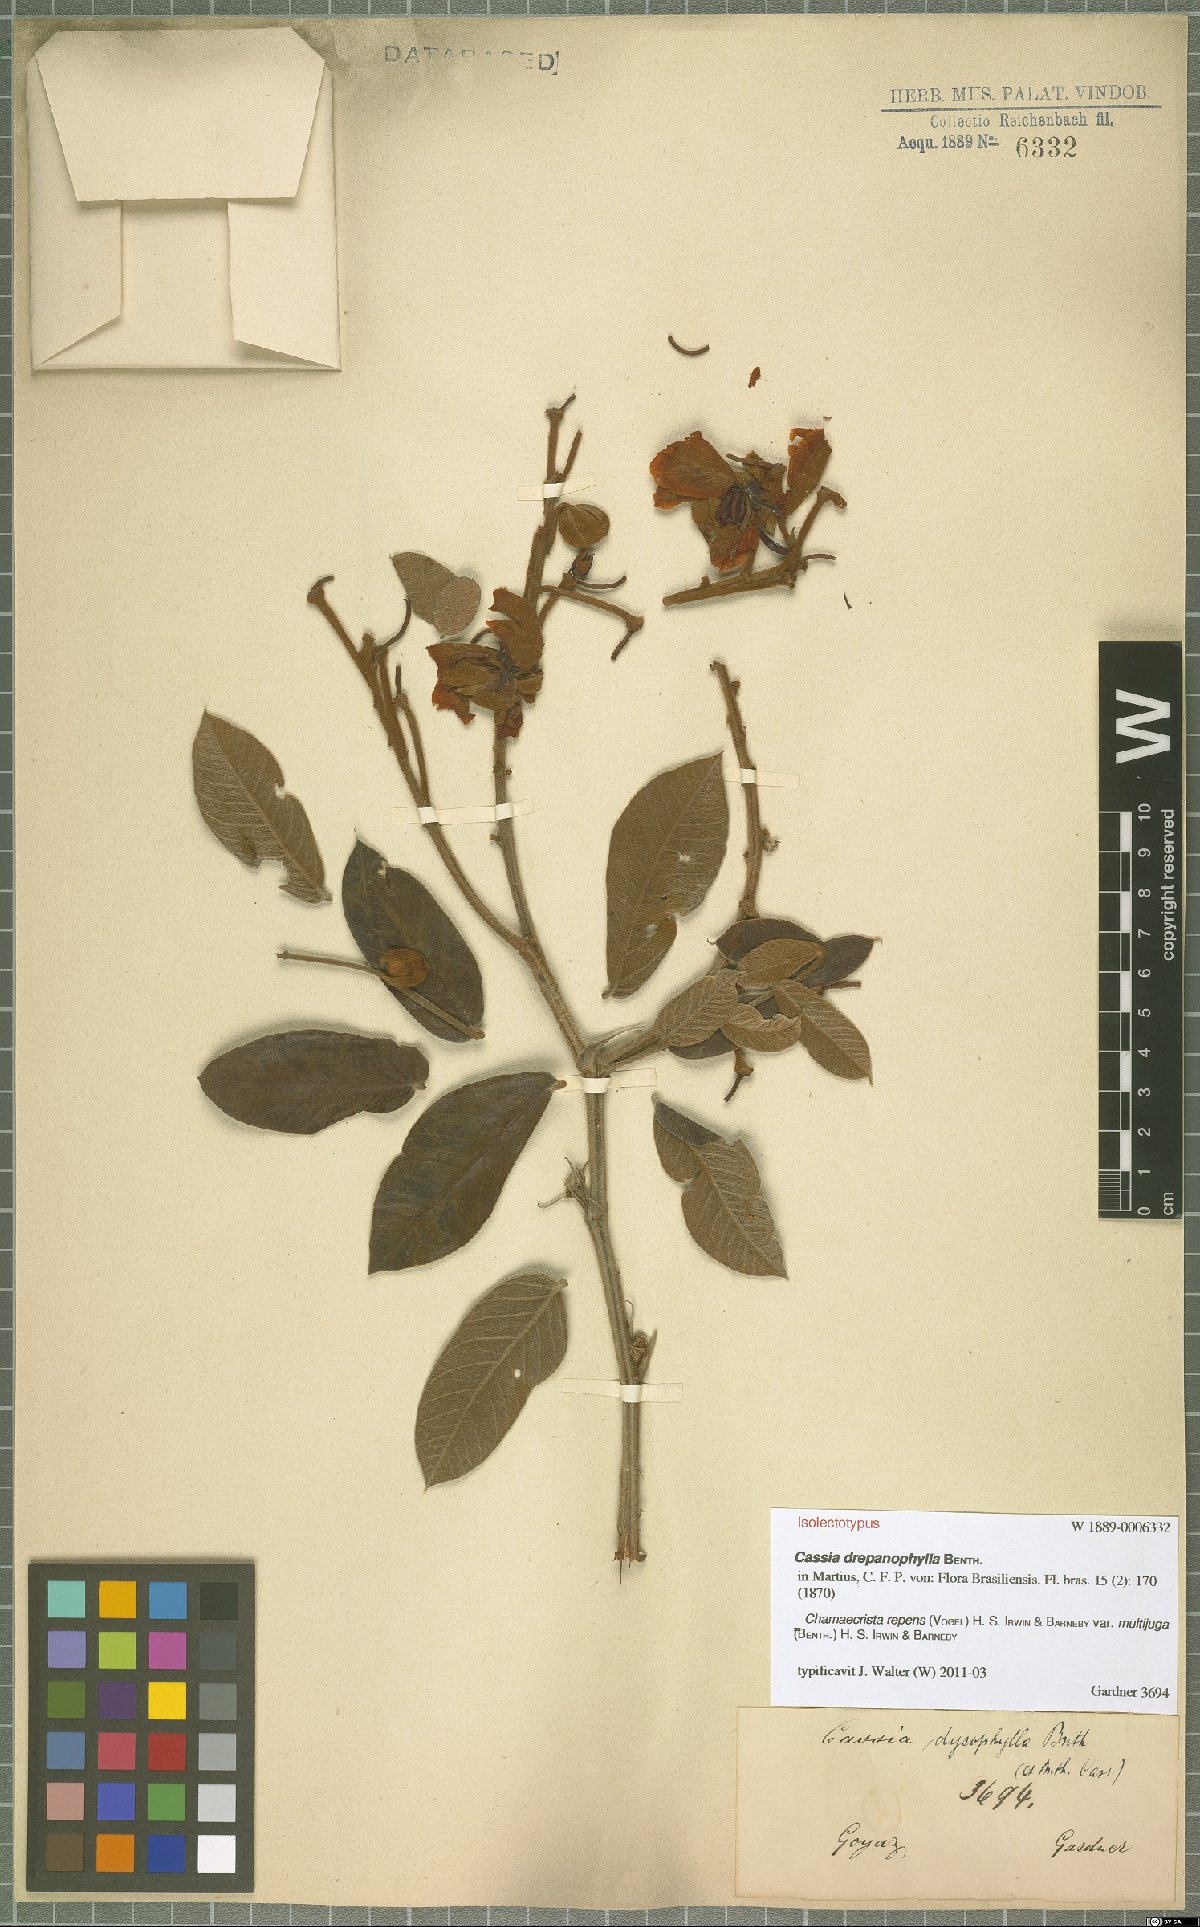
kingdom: Plantae
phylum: Tracheophyta
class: Magnoliopsida
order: Fabales
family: Fabaceae
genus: Chamaecrista
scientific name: Chamaecrista repens
